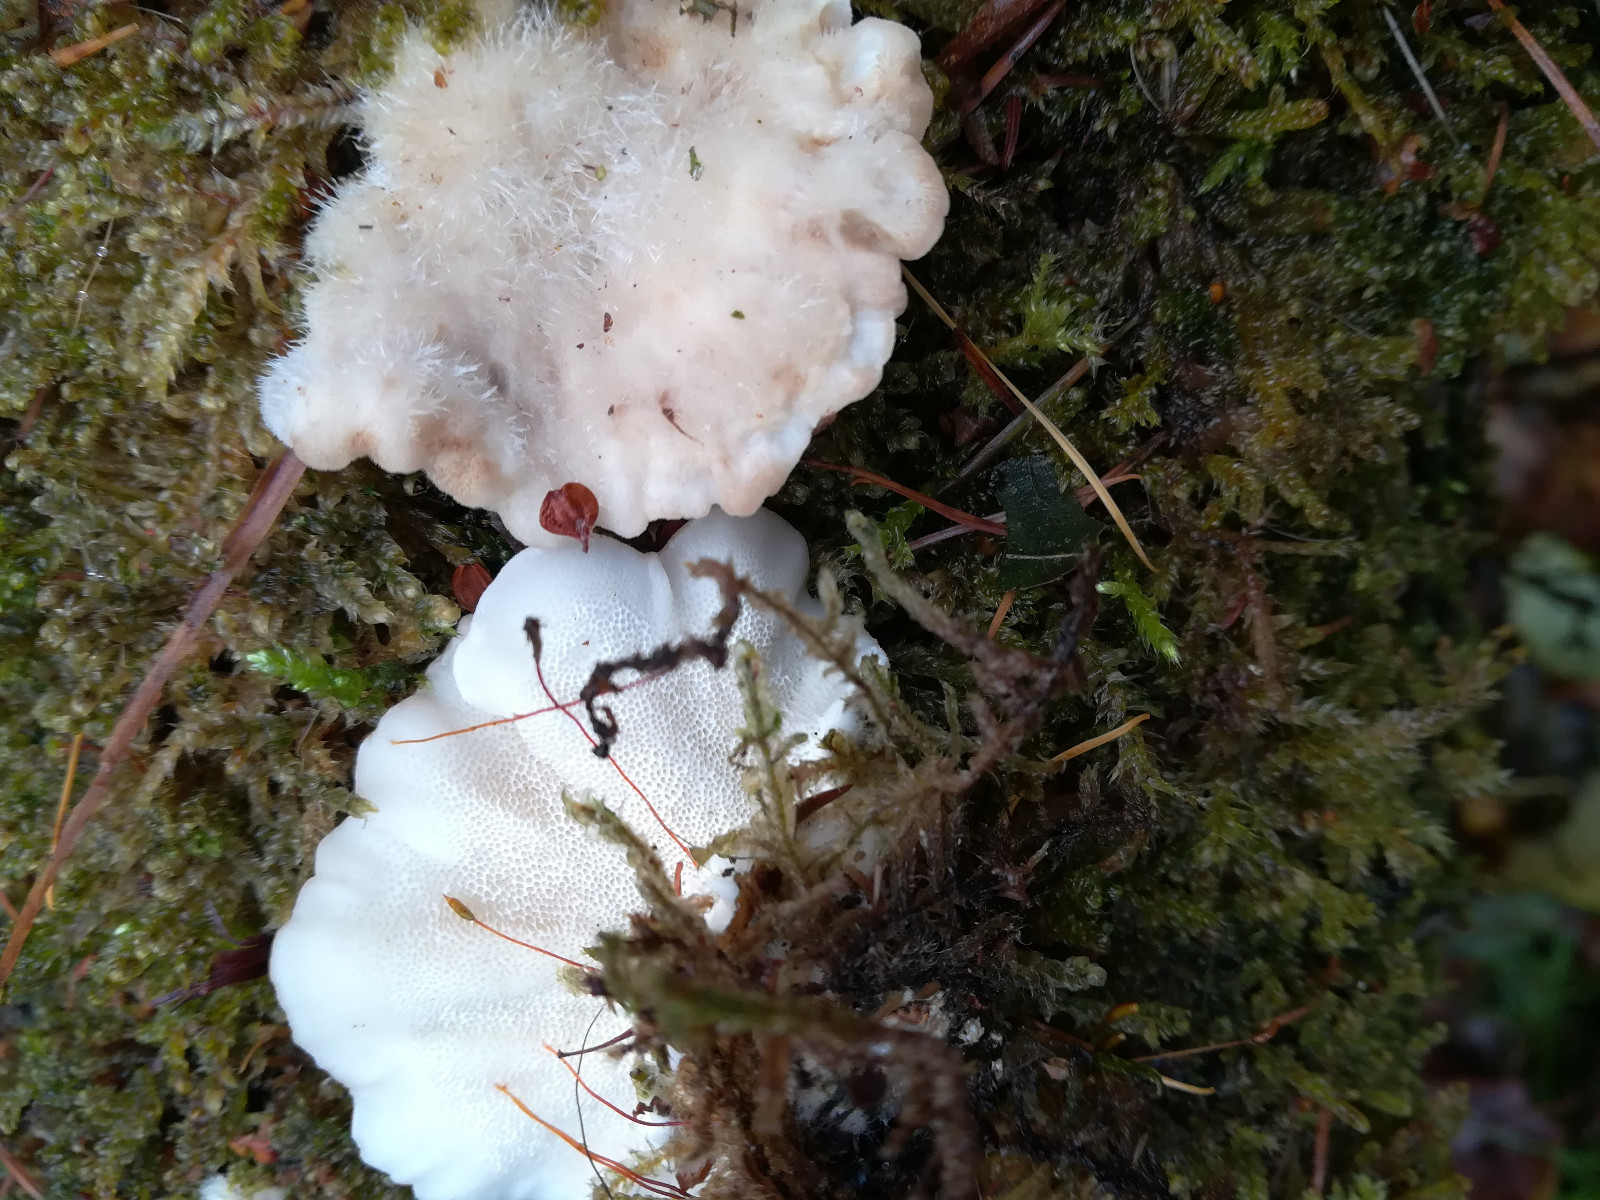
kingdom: Fungi
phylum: Basidiomycota
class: Agaricomycetes
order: Polyporales
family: Polyporaceae
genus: Trametes
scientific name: Trametes hirsuta
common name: håret læderporesvamp
